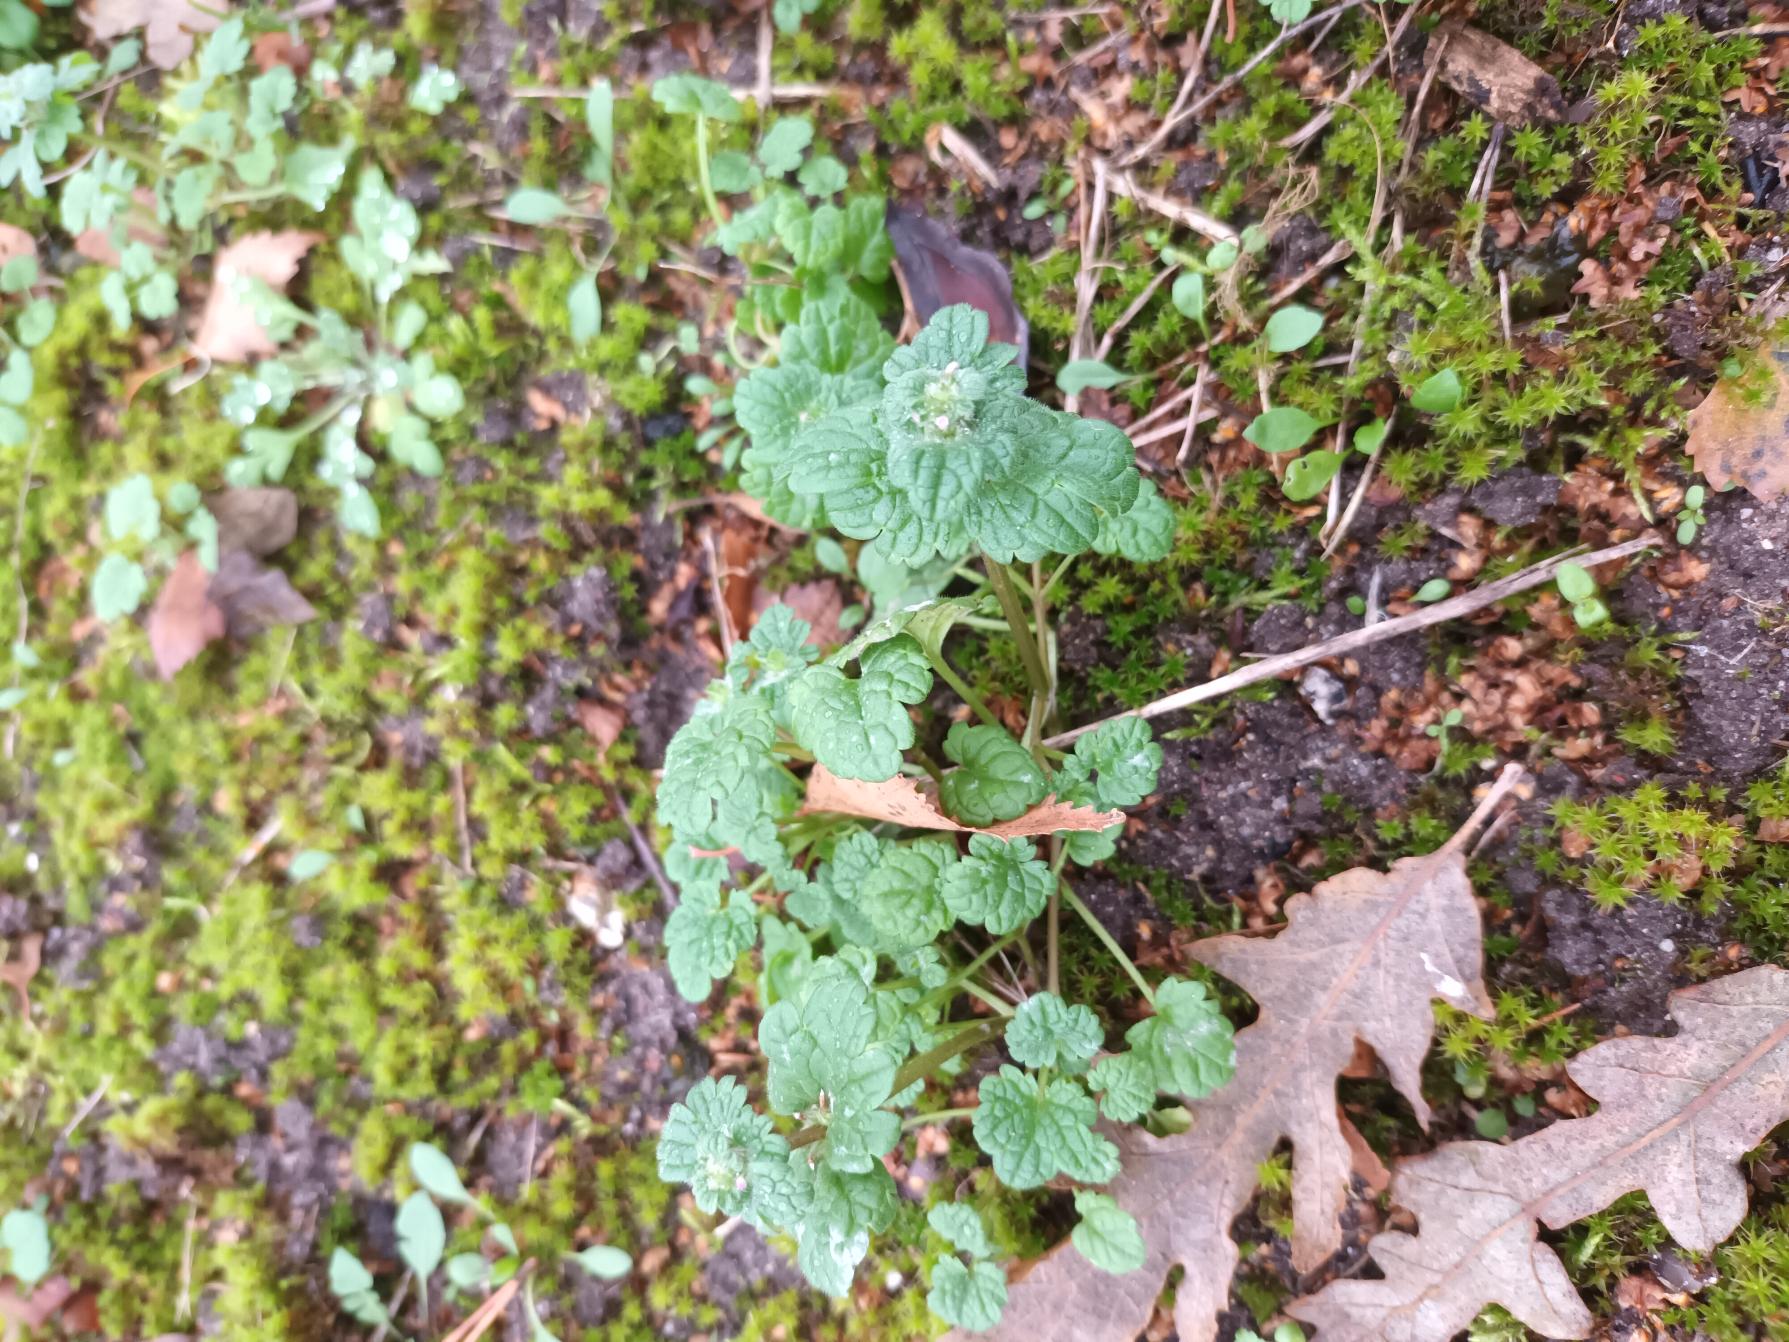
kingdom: Plantae
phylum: Tracheophyta
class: Magnoliopsida
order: Lamiales
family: Lamiaceae
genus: Lamium
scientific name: Lamium amplexicaule
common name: Liden tvetand
